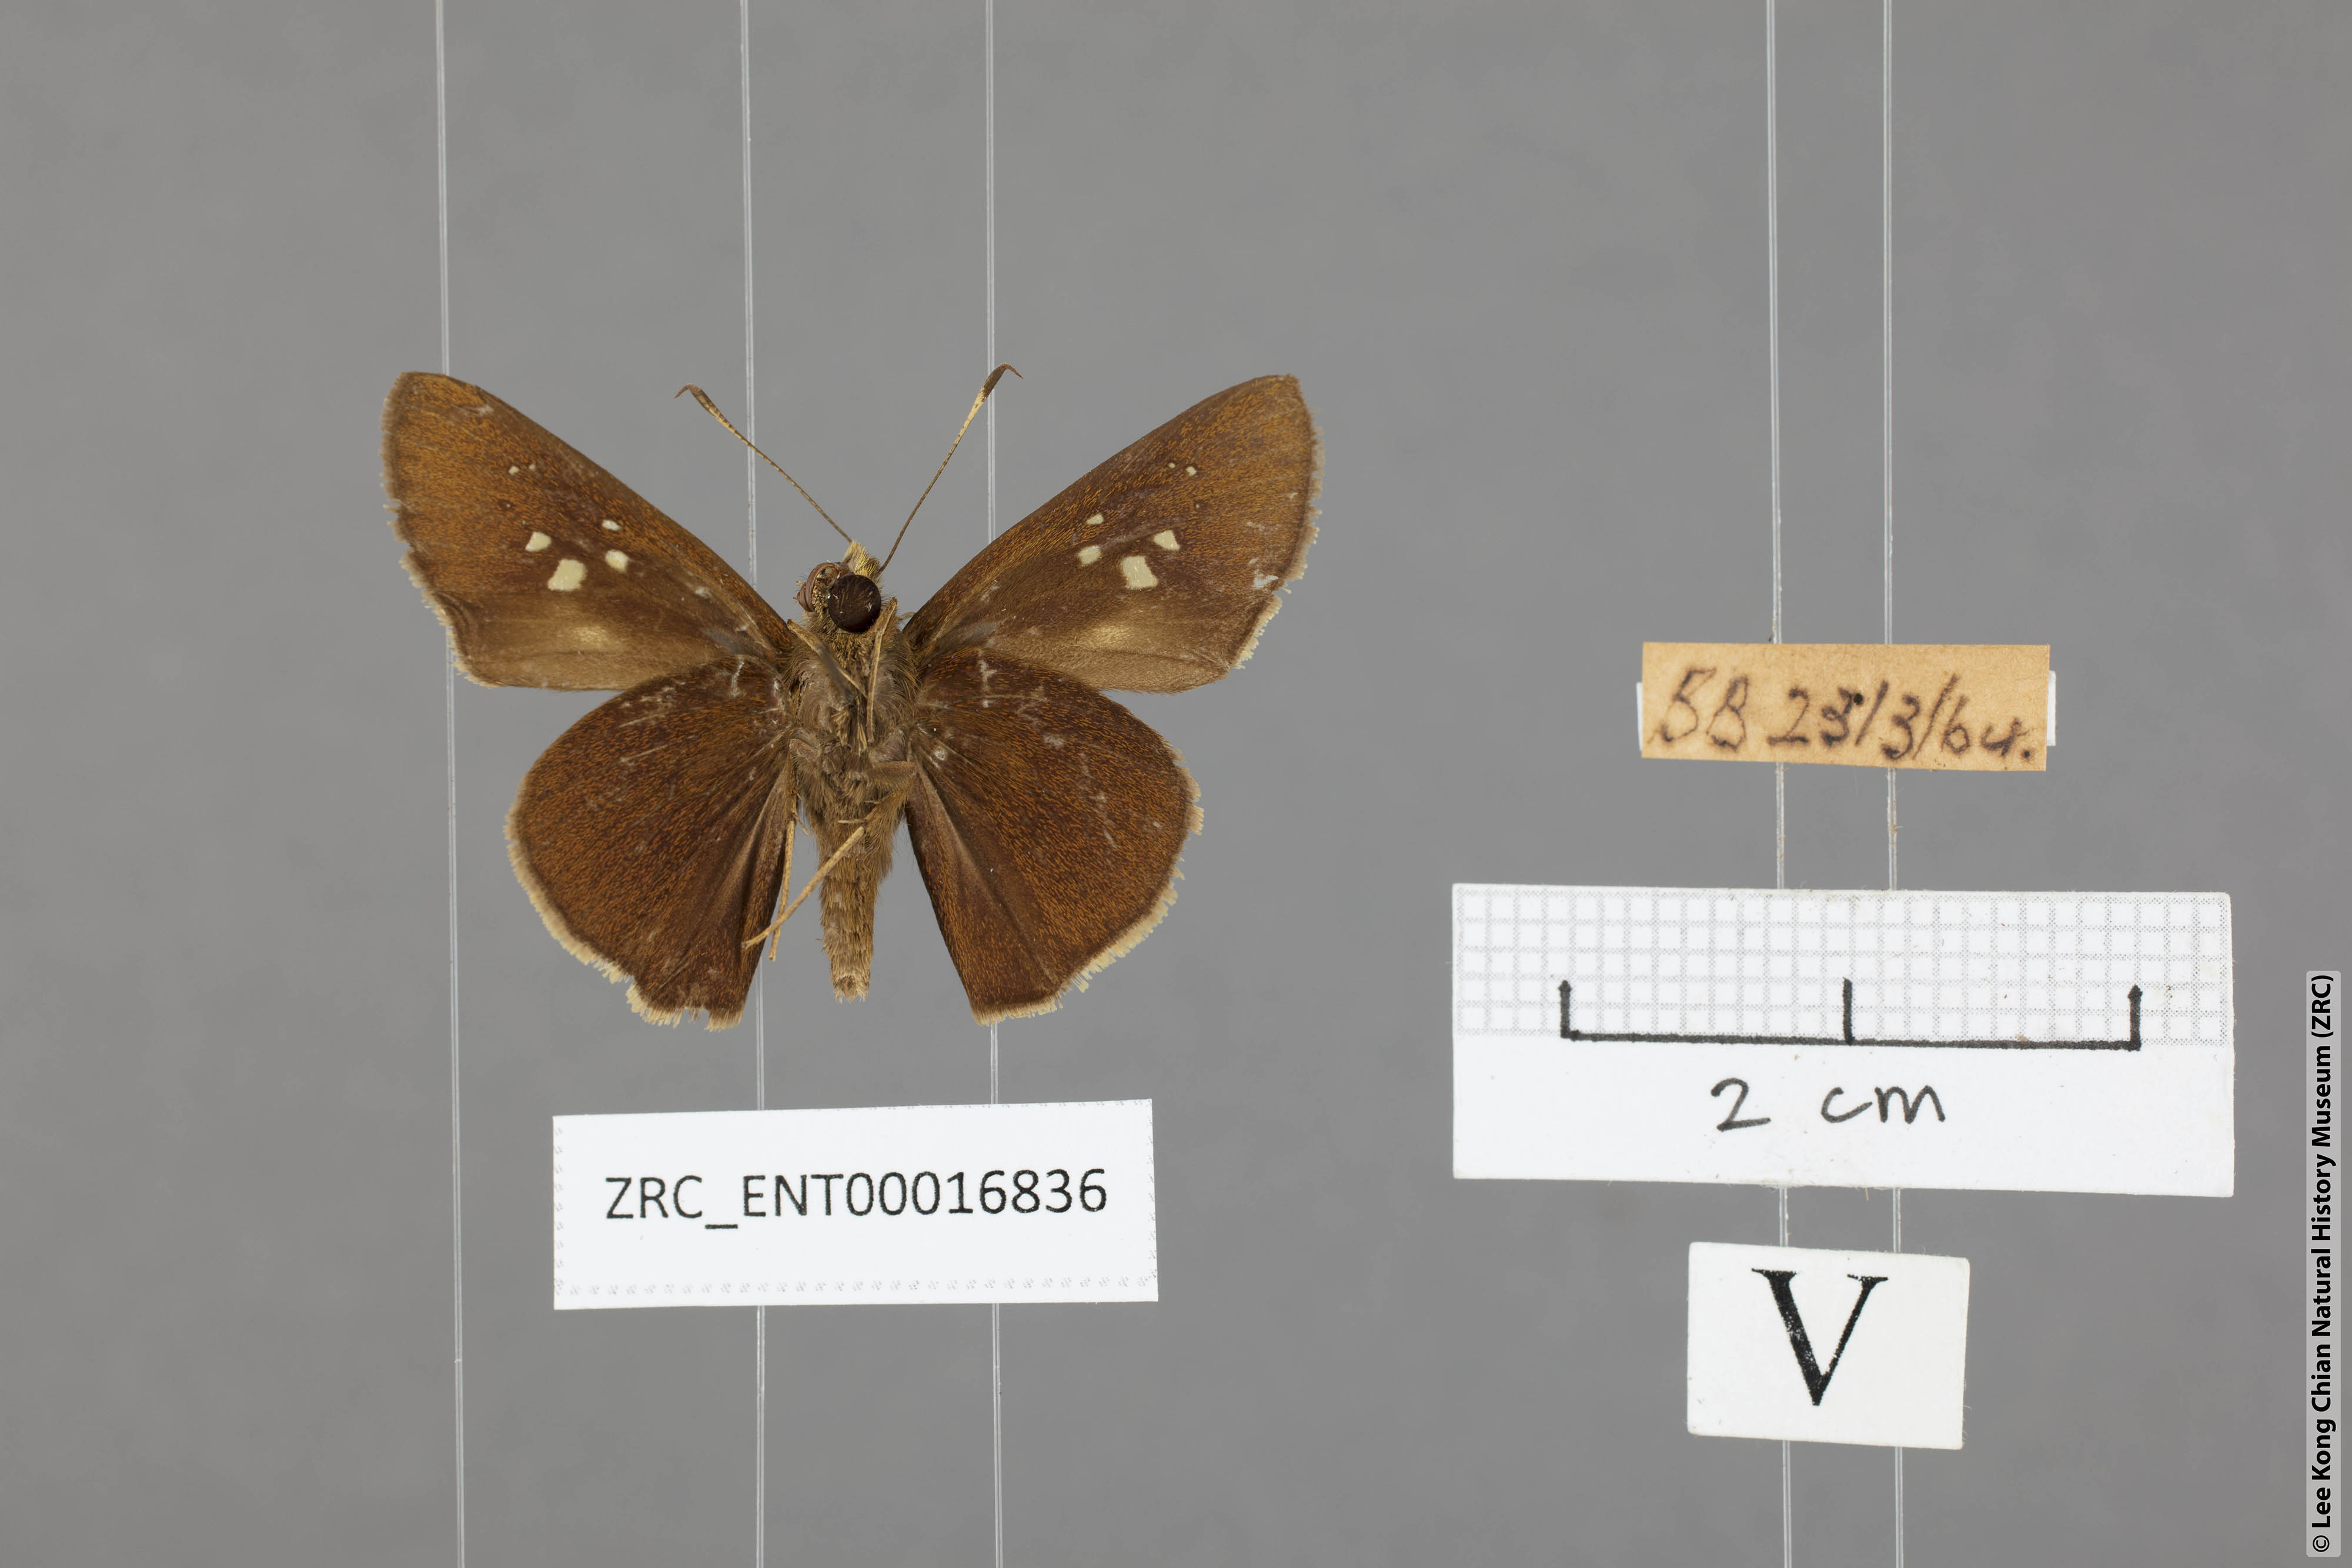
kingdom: Animalia
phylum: Arthropoda
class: Insecta
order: Lepidoptera
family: Hesperiidae
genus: Caltoris
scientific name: Caltoris cormasa
